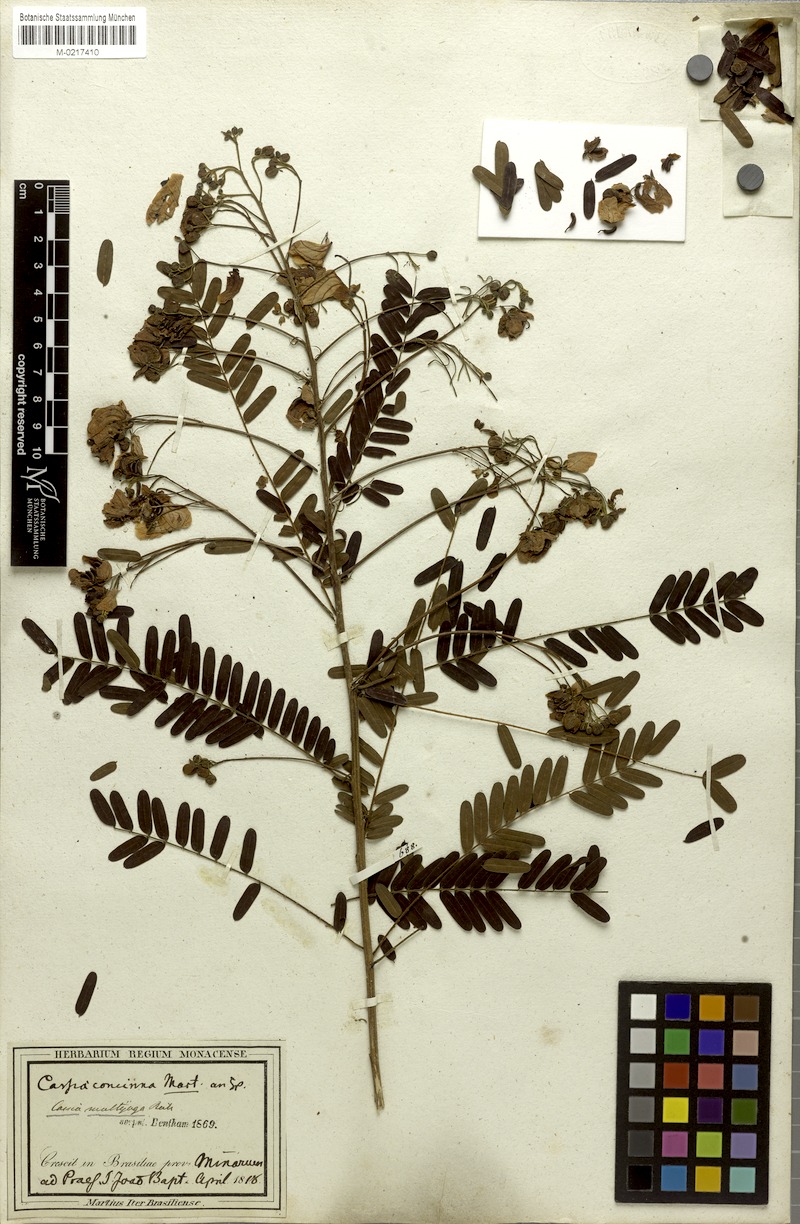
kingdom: Plantae
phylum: Tracheophyta
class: Magnoliopsida
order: Fabales
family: Fabaceae
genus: Chamaecrista
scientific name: Chamaecrista concinna
